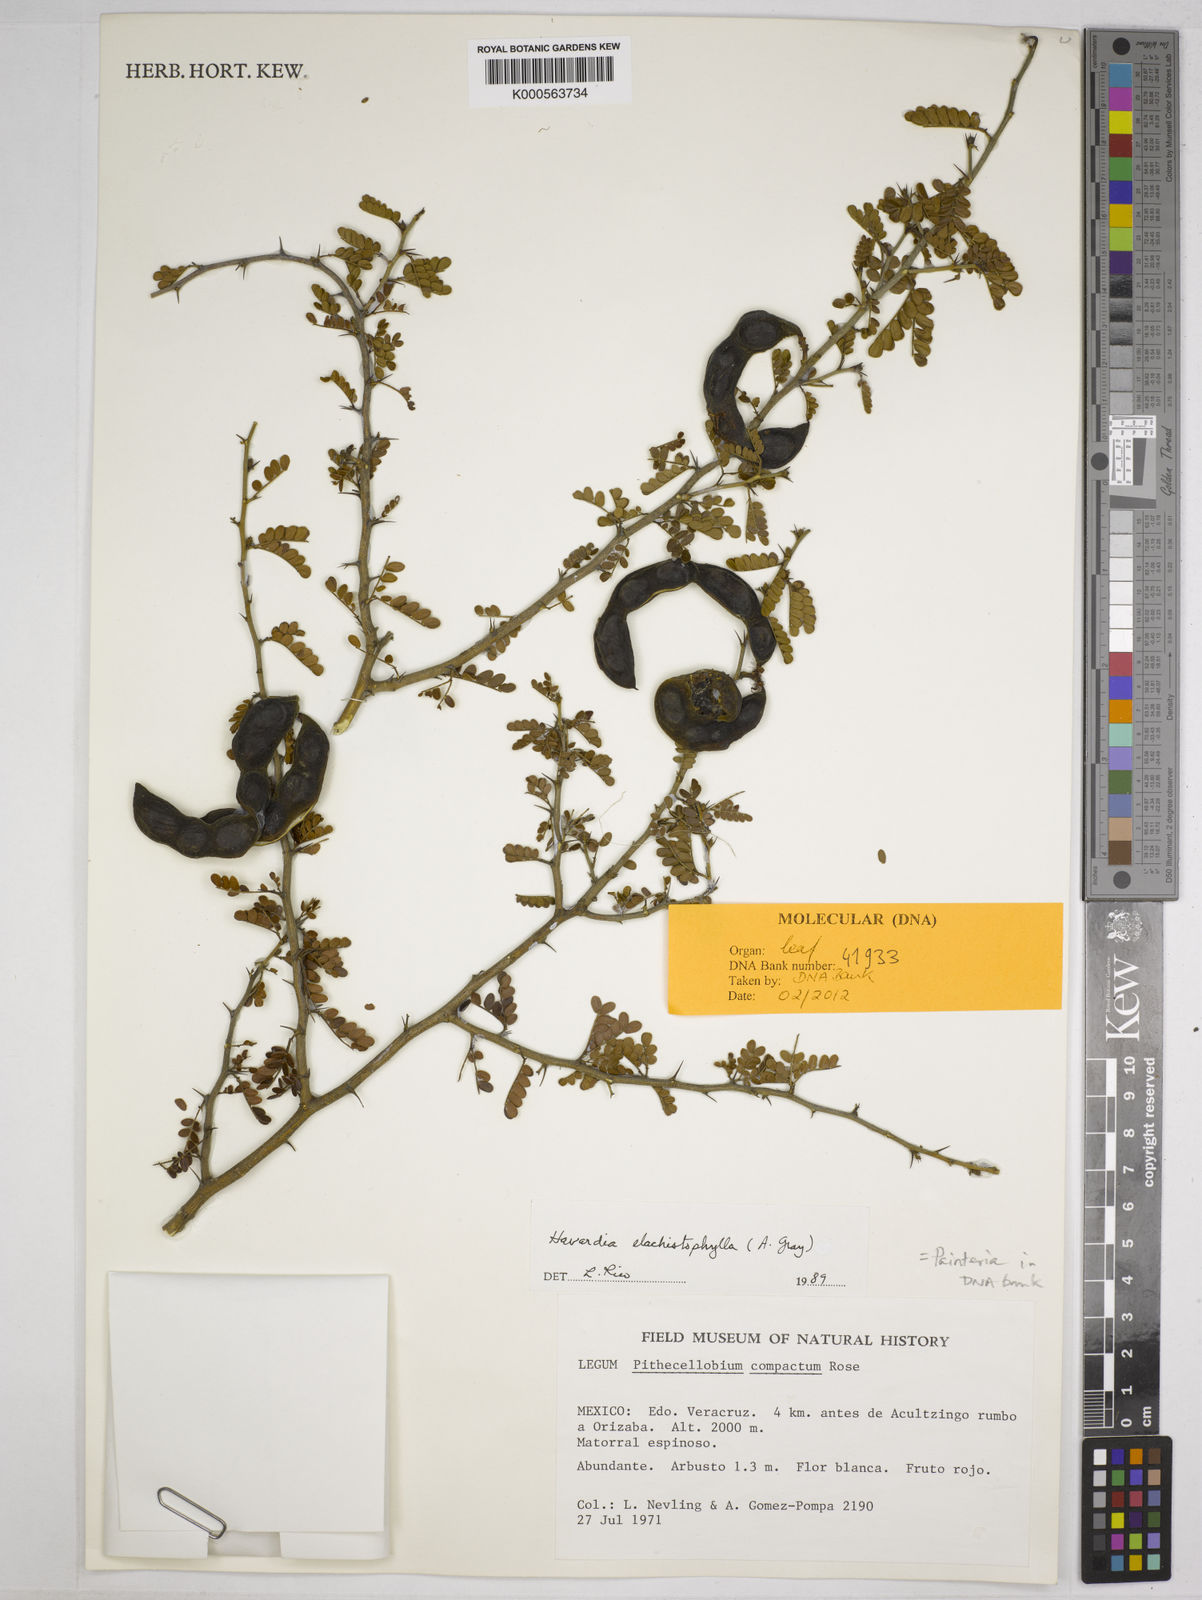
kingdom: Plantae
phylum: Tracheophyta
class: Magnoliopsida
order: Fabales
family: Fabaceae
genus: Havardia
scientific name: Havardia
